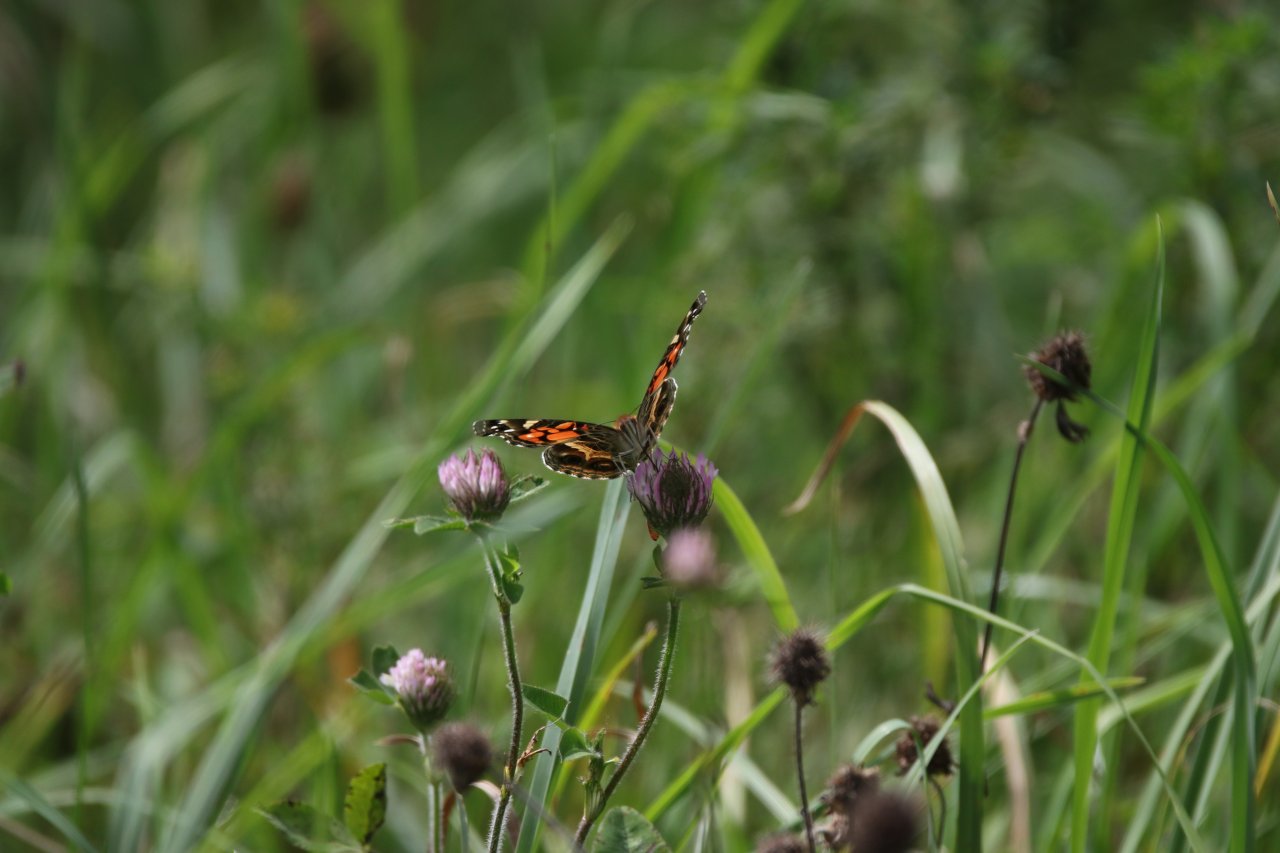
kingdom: Animalia
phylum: Arthropoda
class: Insecta
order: Lepidoptera
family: Nymphalidae
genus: Vanessa
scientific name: Vanessa virginiensis
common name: American Lady
